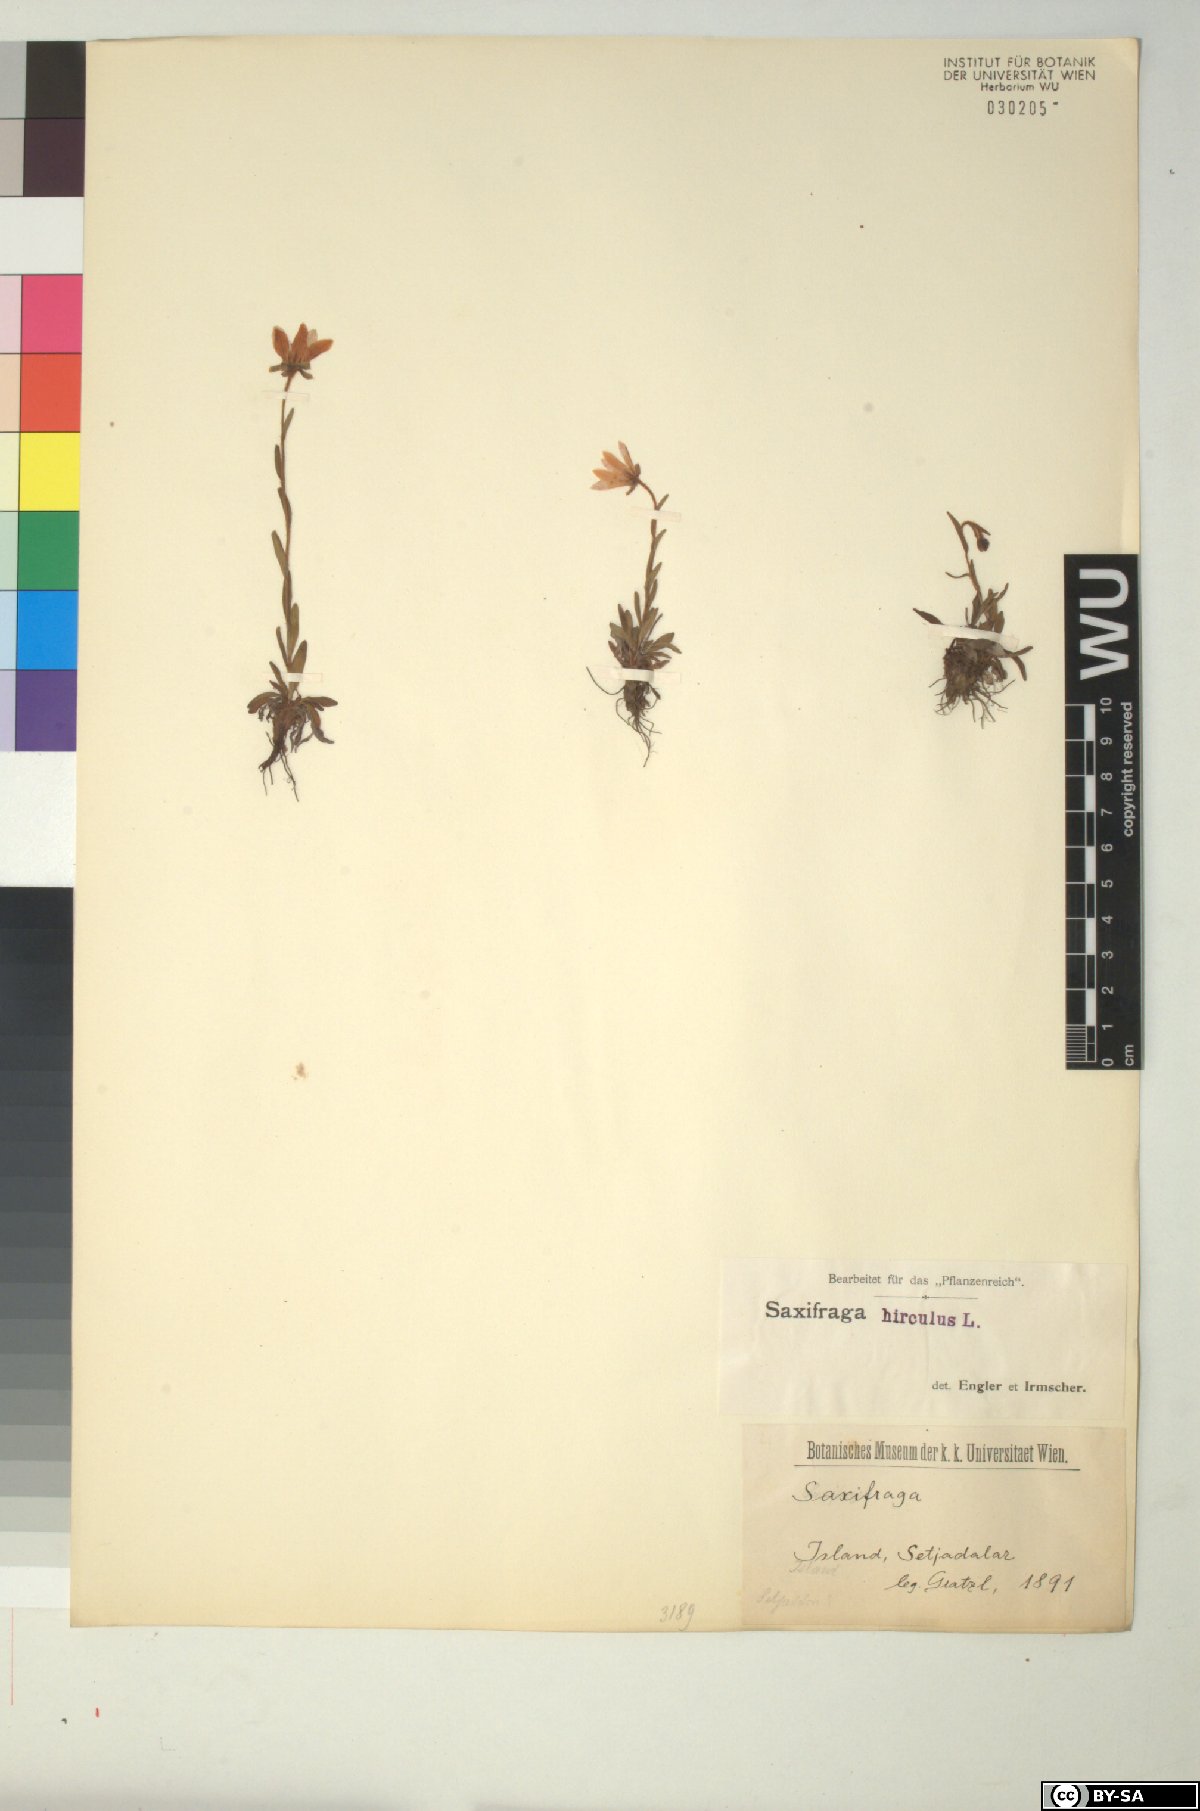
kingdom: Plantae
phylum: Tracheophyta
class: Magnoliopsida
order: Saxifragales
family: Saxifragaceae
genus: Saxifraga
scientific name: Saxifraga hirculus
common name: Yellow marsh saxifrage
